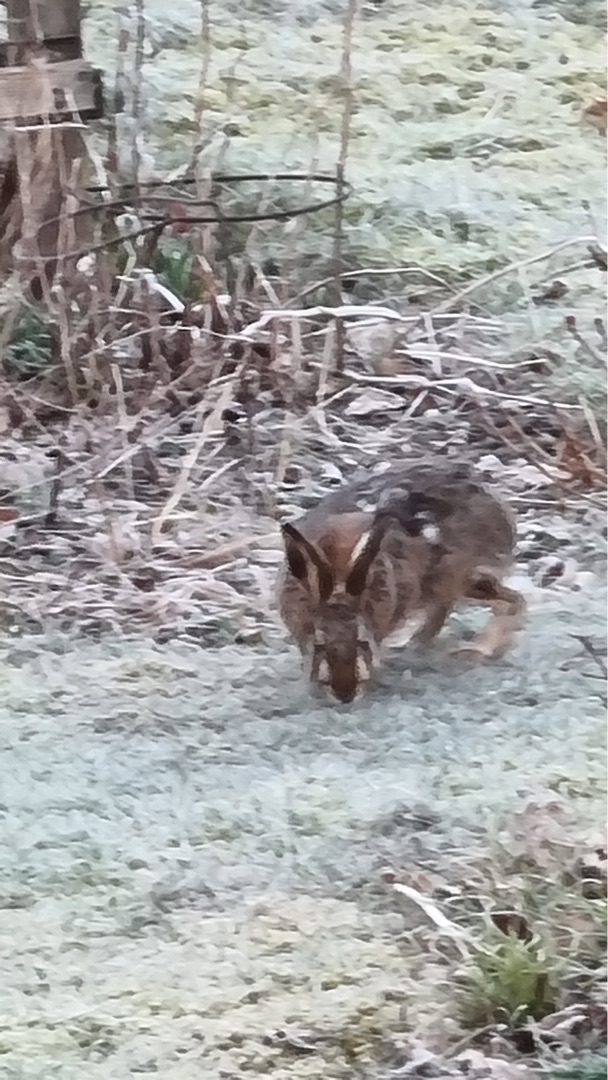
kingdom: Animalia
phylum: Chordata
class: Mammalia
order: Lagomorpha
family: Leporidae
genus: Lepus
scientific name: Lepus europaeus
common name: Hare
